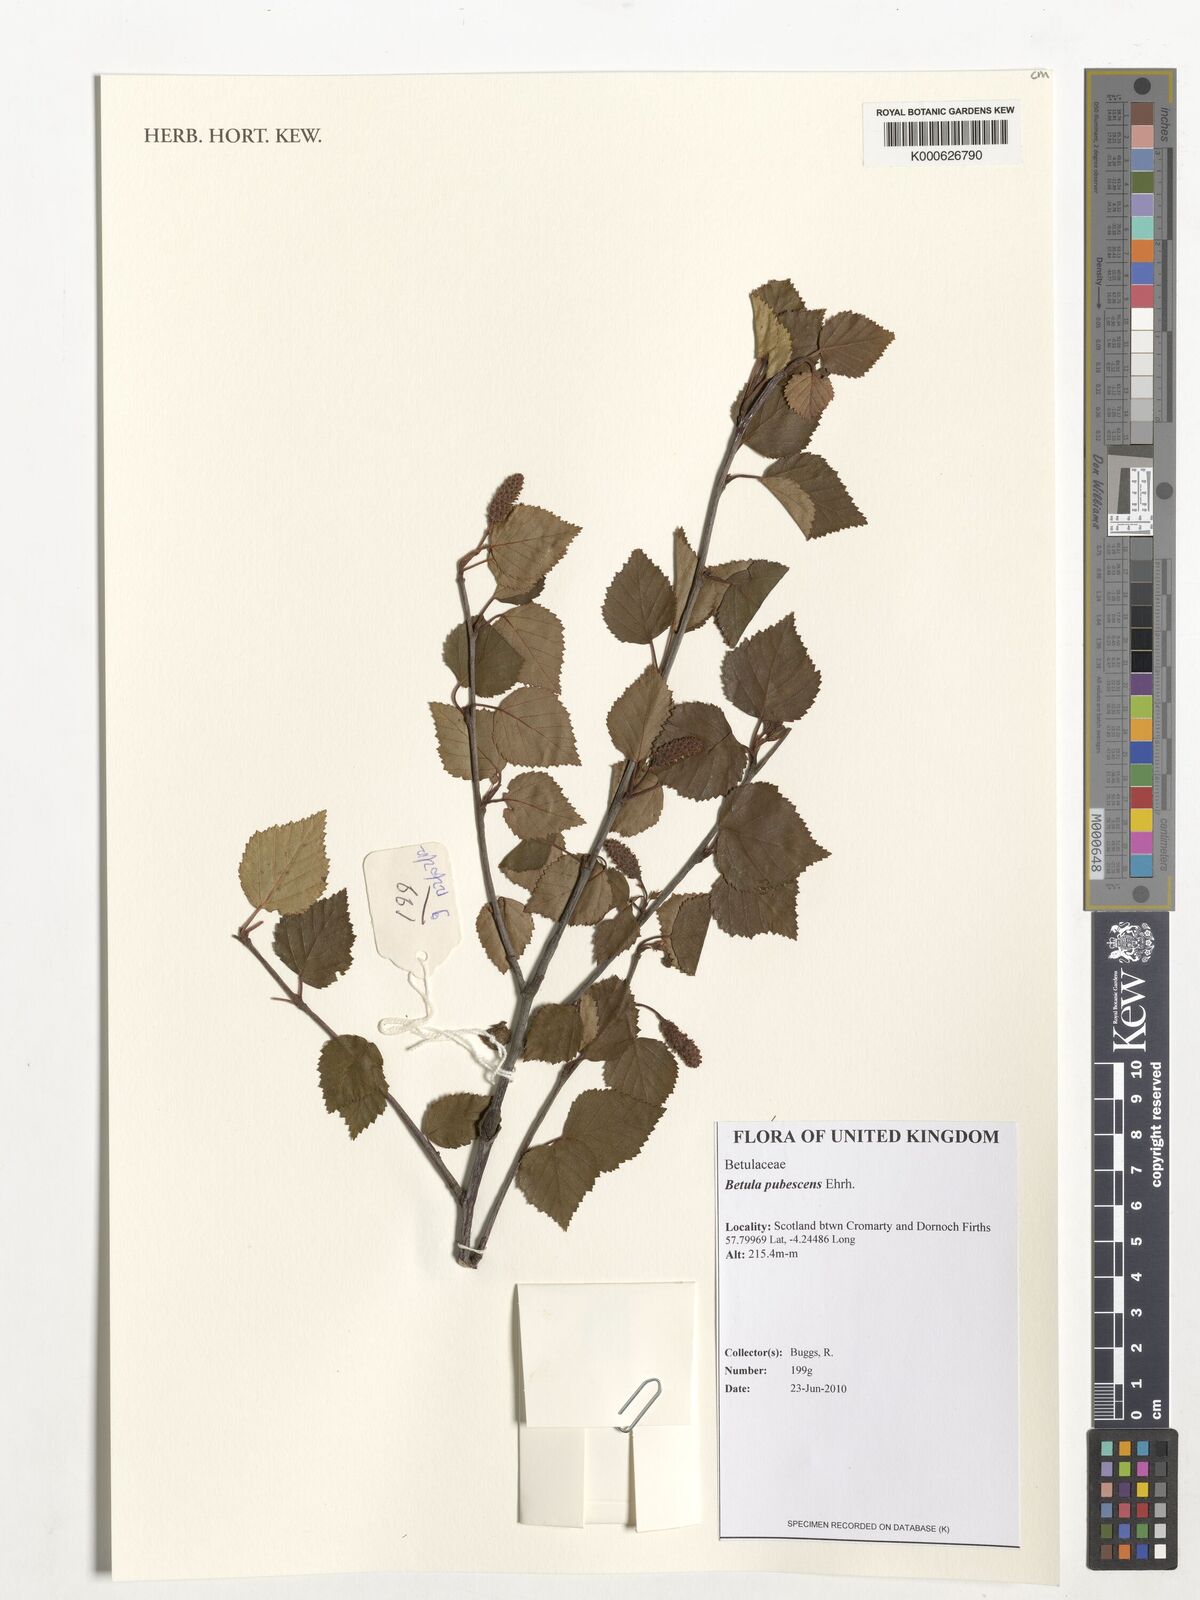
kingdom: Plantae
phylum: Tracheophyta
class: Magnoliopsida
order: Fagales
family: Betulaceae
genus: Betula
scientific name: Betula pubescens
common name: Downy birch
